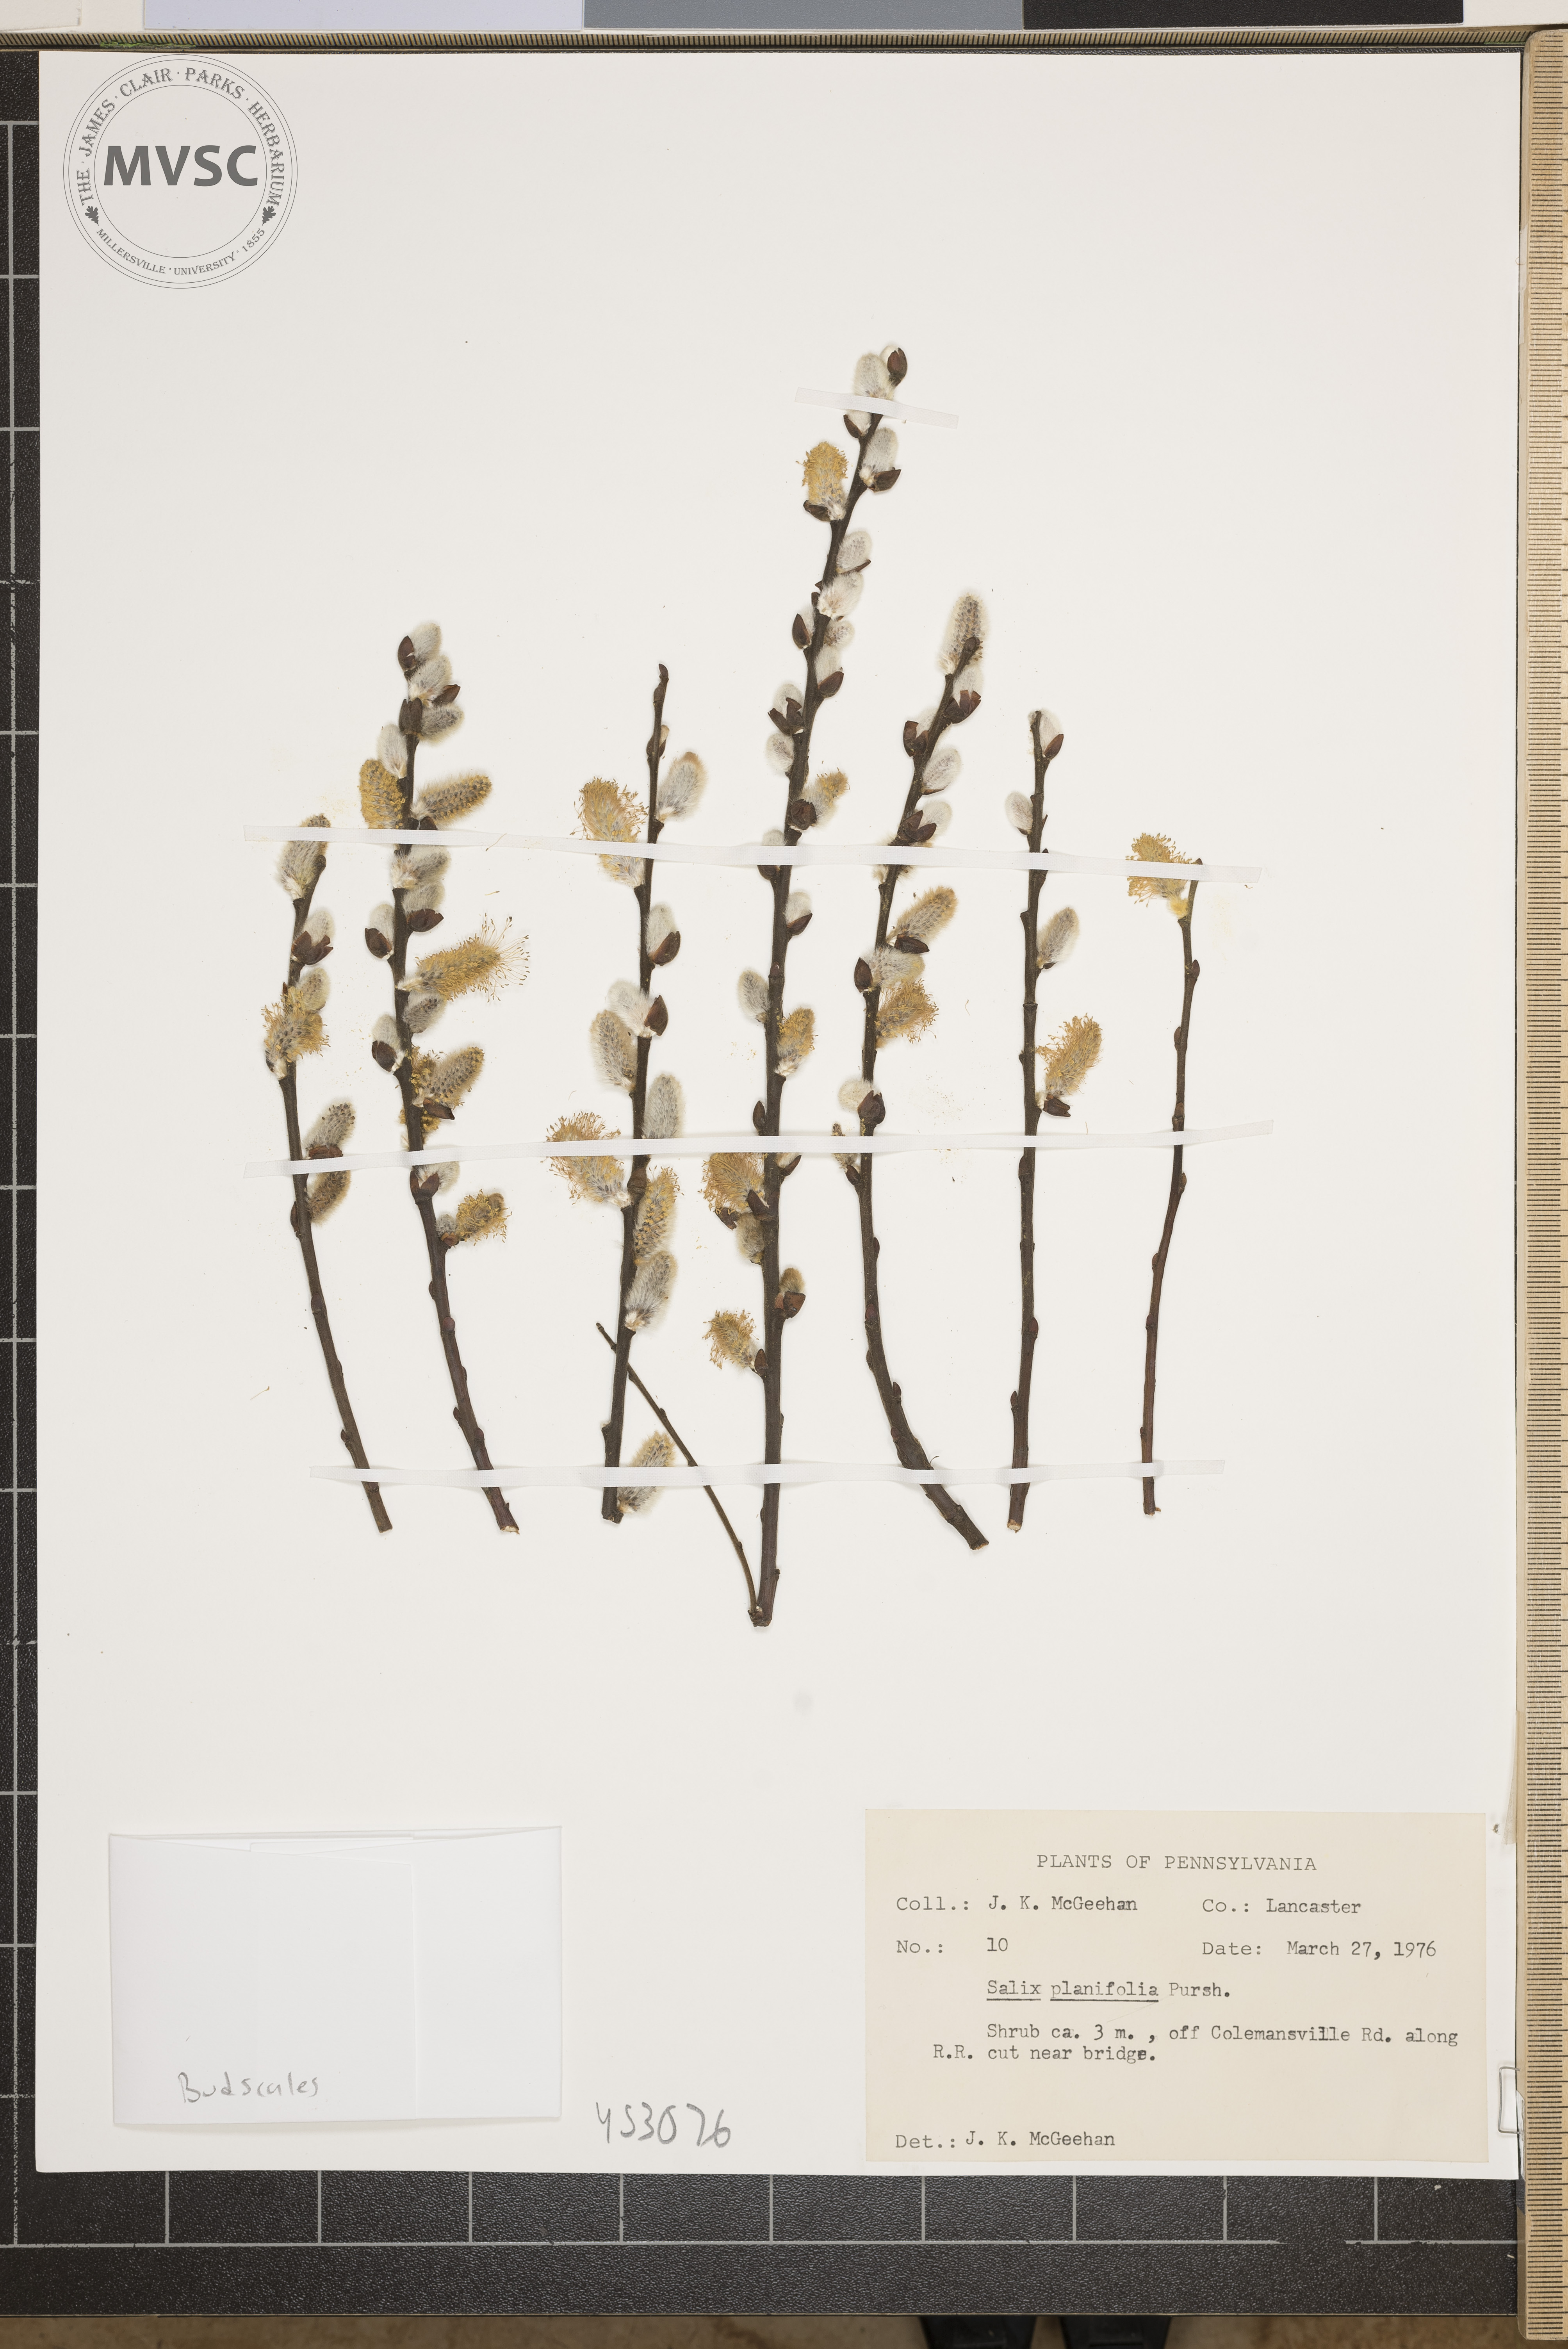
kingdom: Plantae
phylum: Tracheophyta
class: Magnoliopsida
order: Malpighiales
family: Salicaceae
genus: Salix
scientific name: Salix planifolia
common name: Mountain willow
